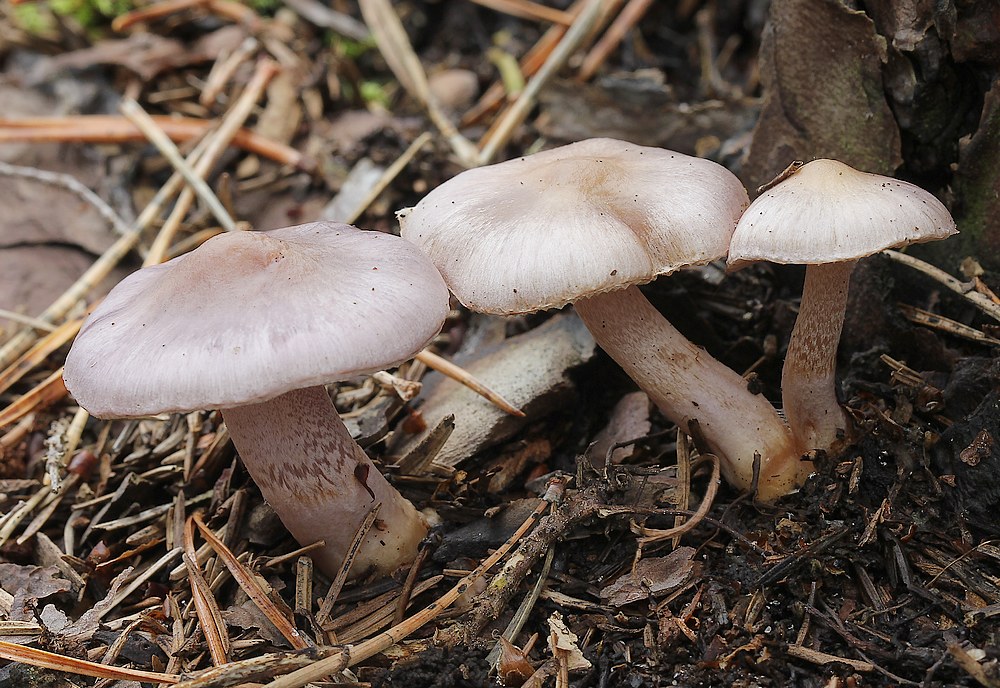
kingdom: Fungi
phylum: Basidiomycota
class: Agaricomycetes
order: Agaricales
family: Inocybaceae
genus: Inocybe
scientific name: Inocybe geophylla
